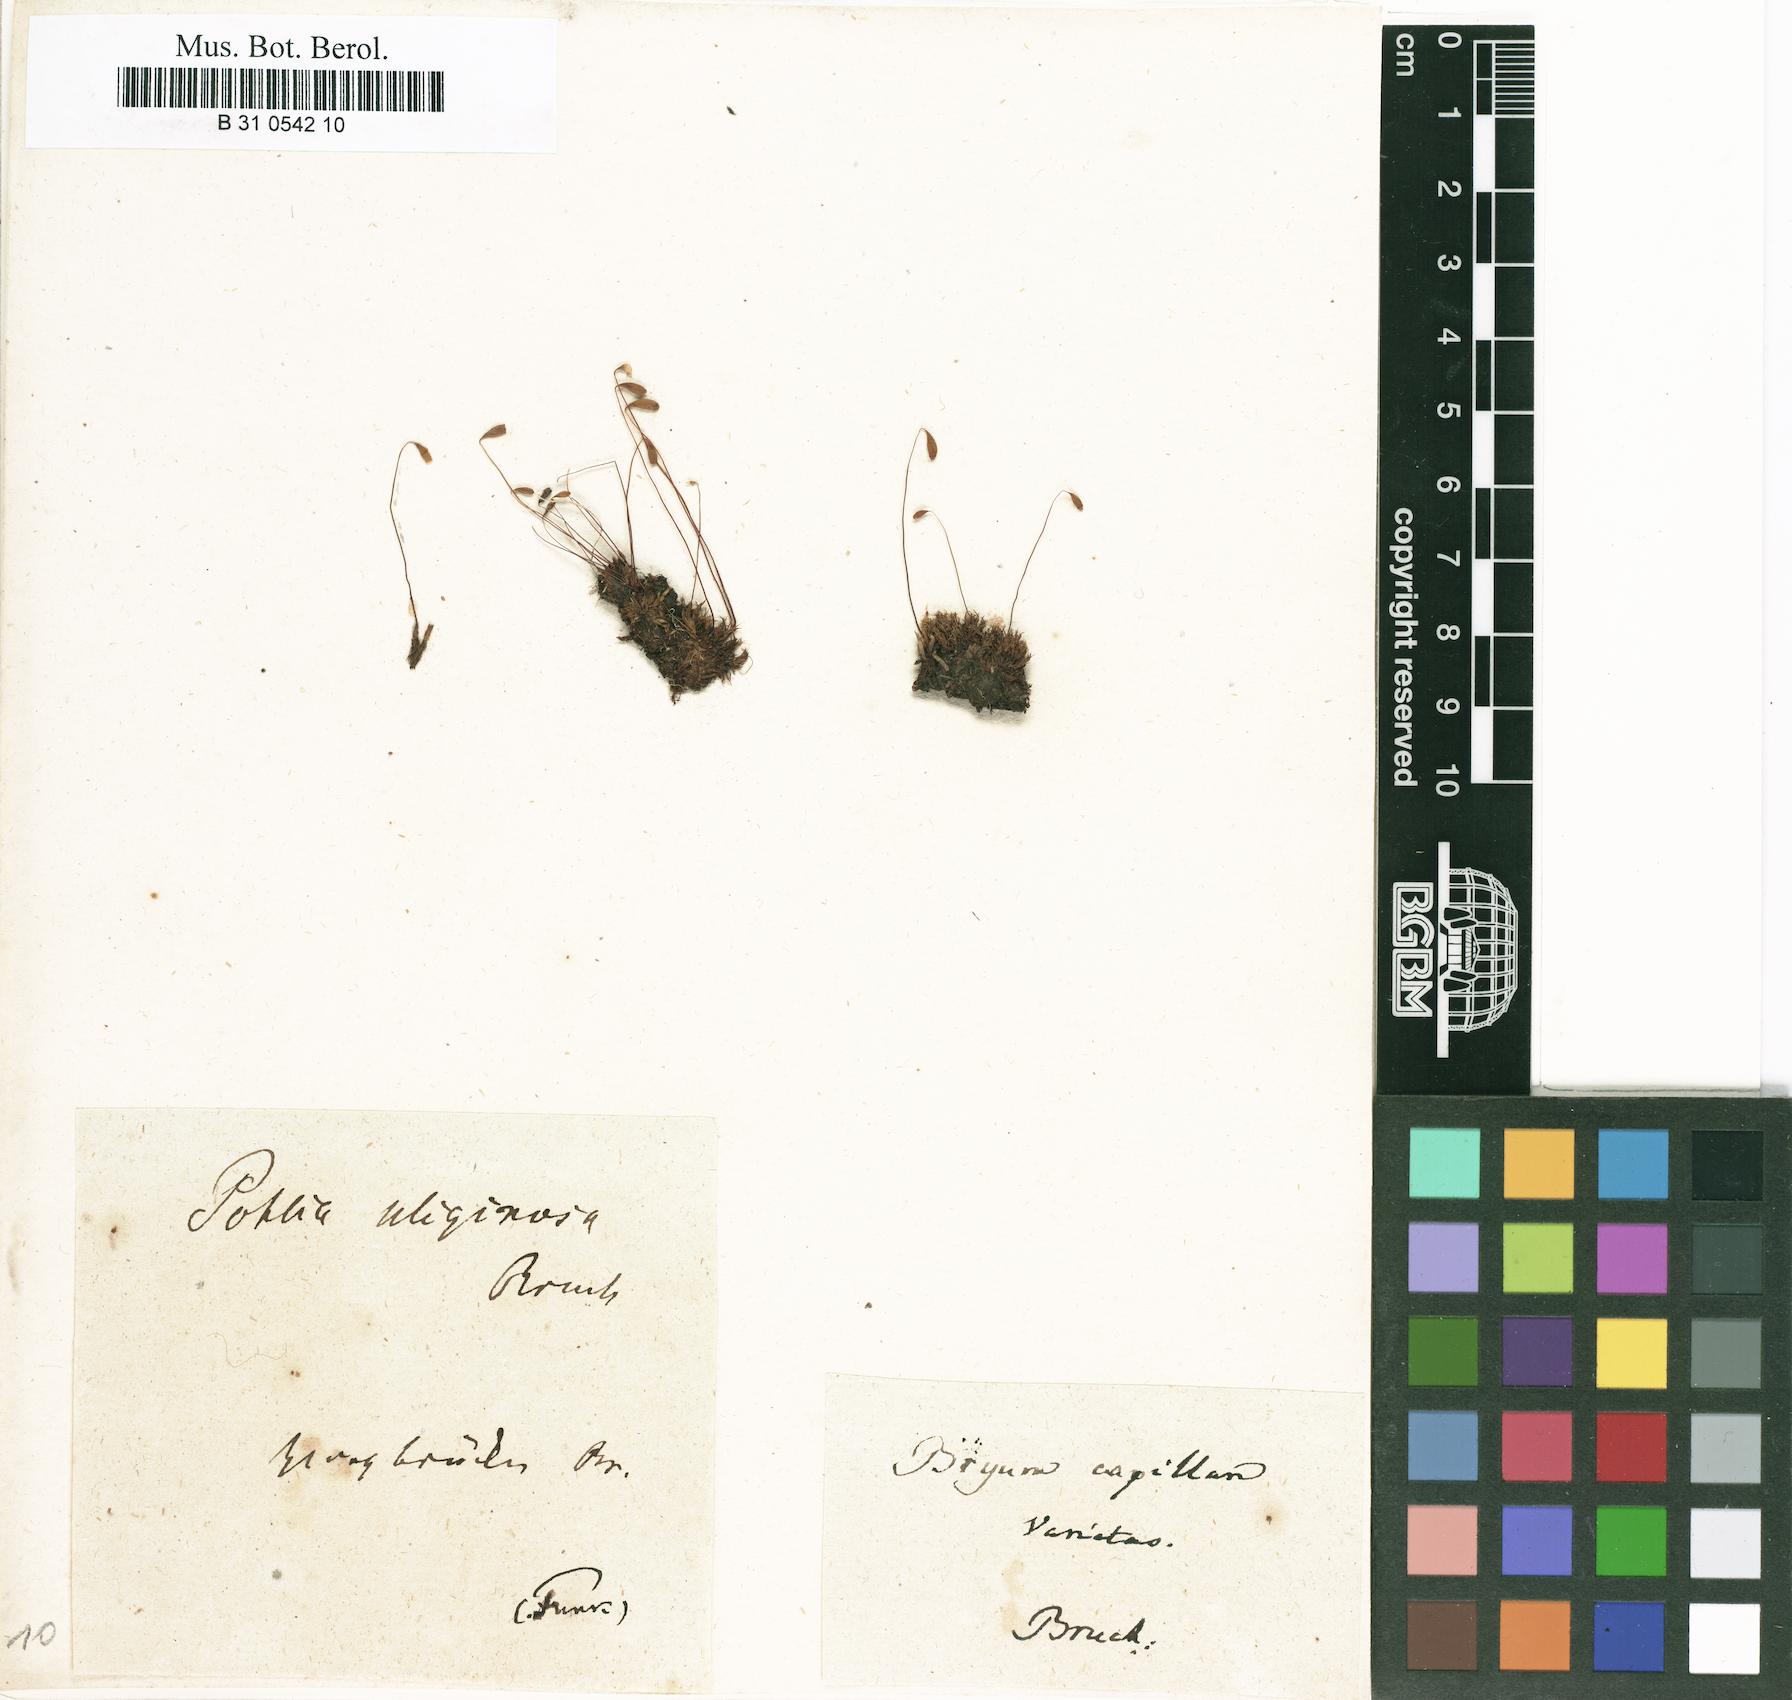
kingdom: Plantae
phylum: Bryophyta
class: Bryopsida
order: Bryales
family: Bryaceae
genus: Rosulabryum
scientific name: Rosulabryum capillare
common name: Capillary thread-moss
